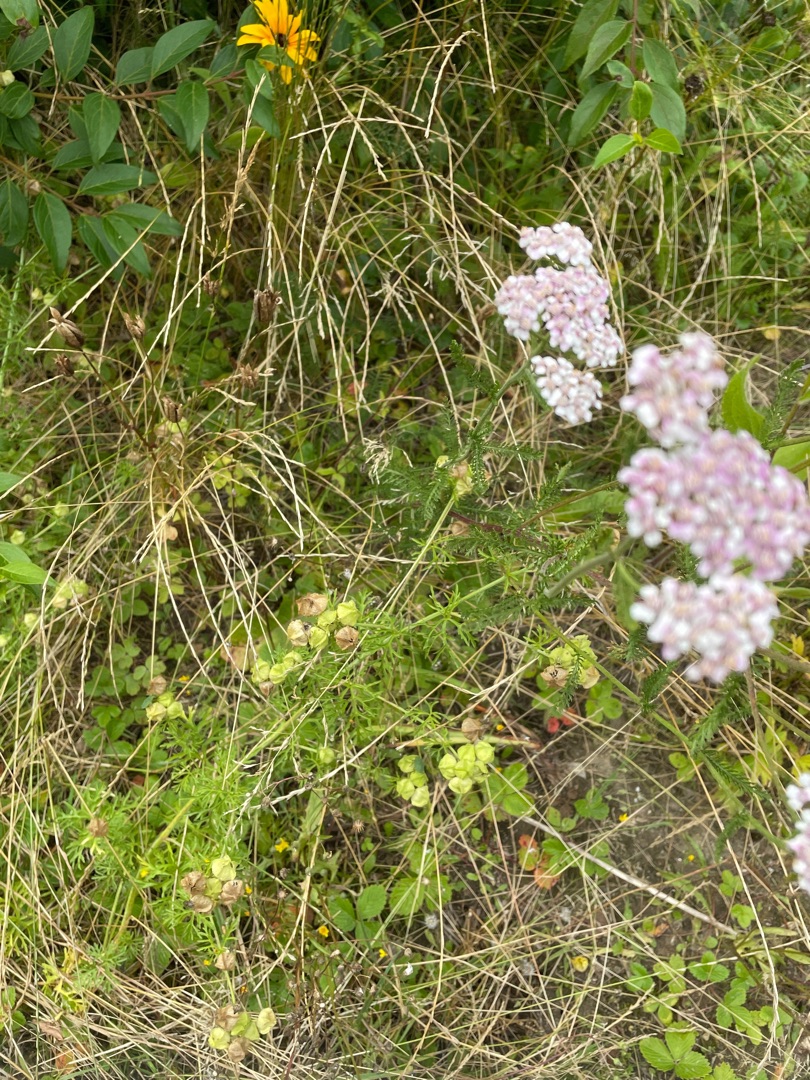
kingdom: Plantae
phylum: Tracheophyta
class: Magnoliopsida
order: Asterales
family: Asteraceae
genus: Rudbeckia
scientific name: Rudbeckia hirta
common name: Håret solhat
